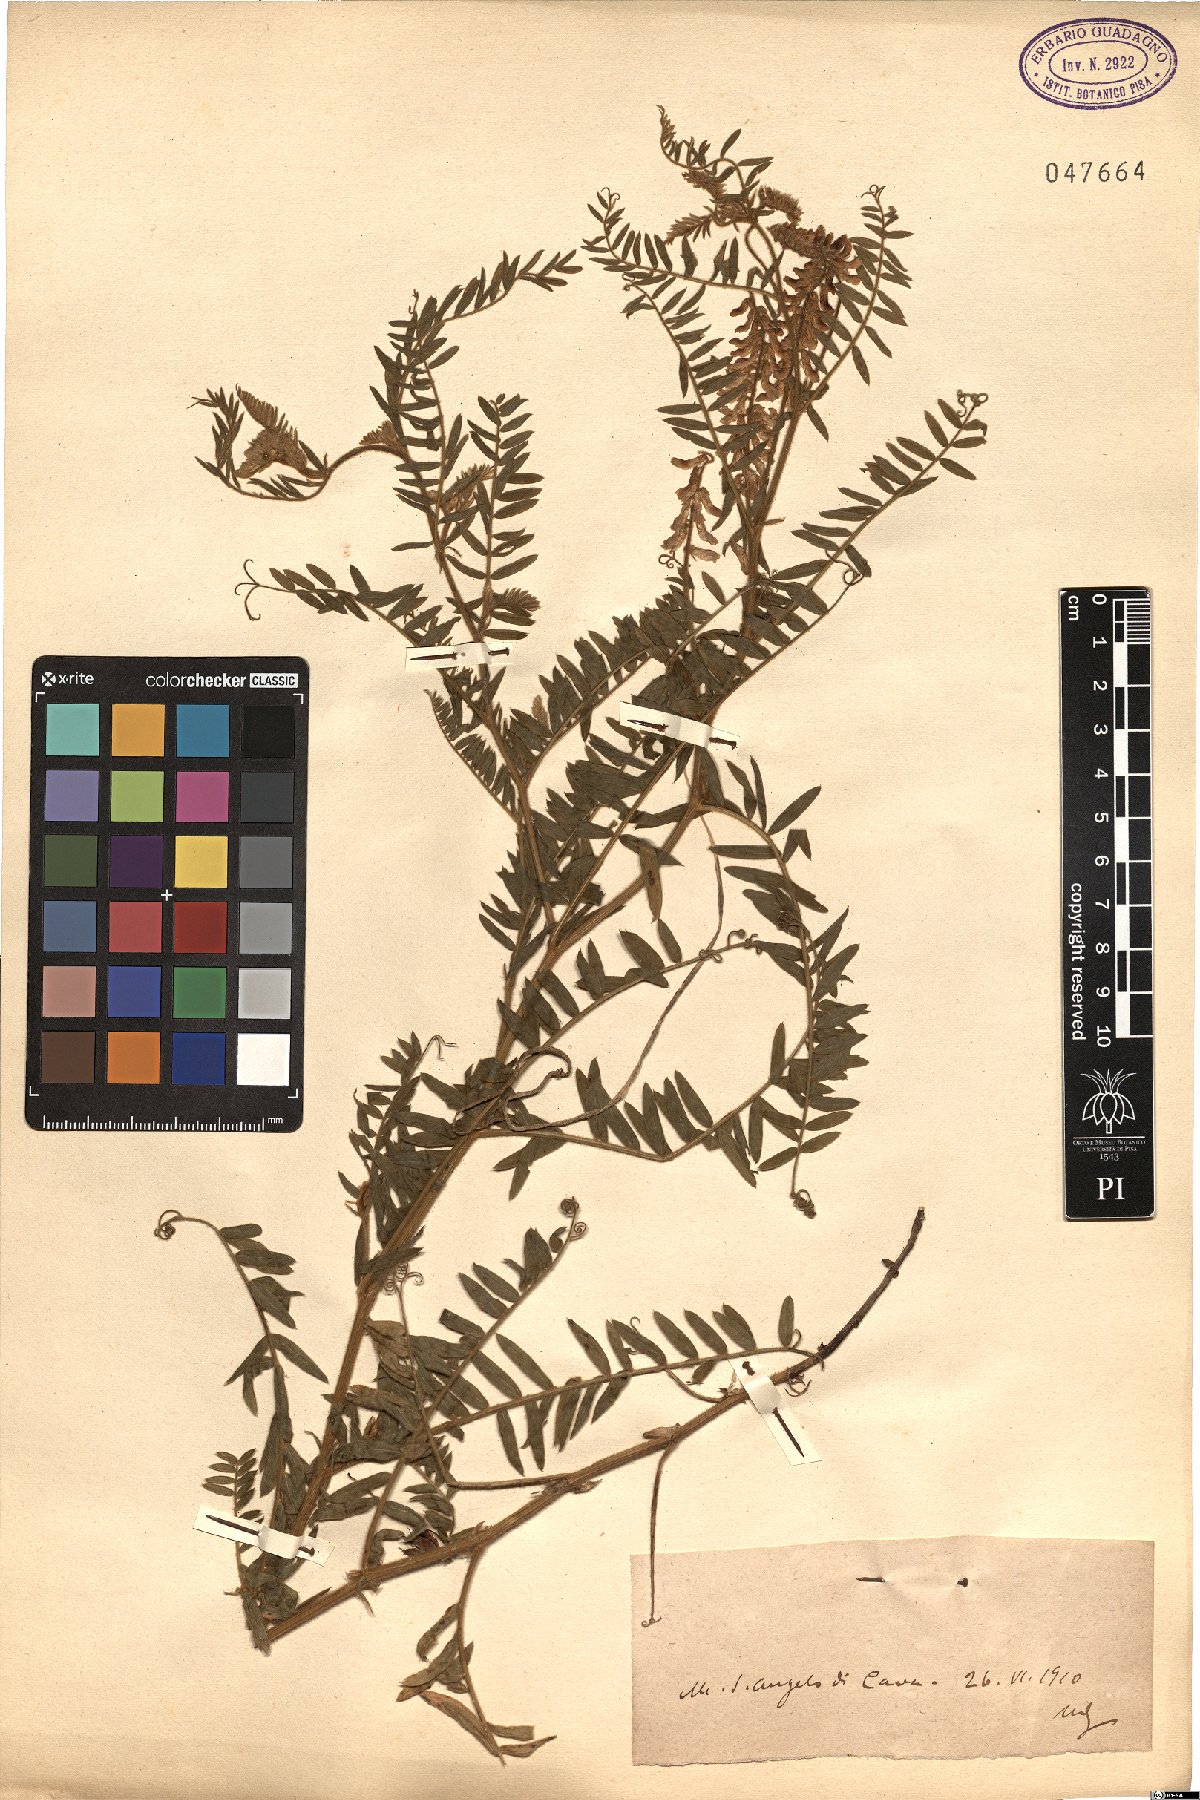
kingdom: Plantae
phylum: Tracheophyta
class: Magnoliopsida
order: Fabales
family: Fabaceae
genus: Vicia
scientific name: Vicia
